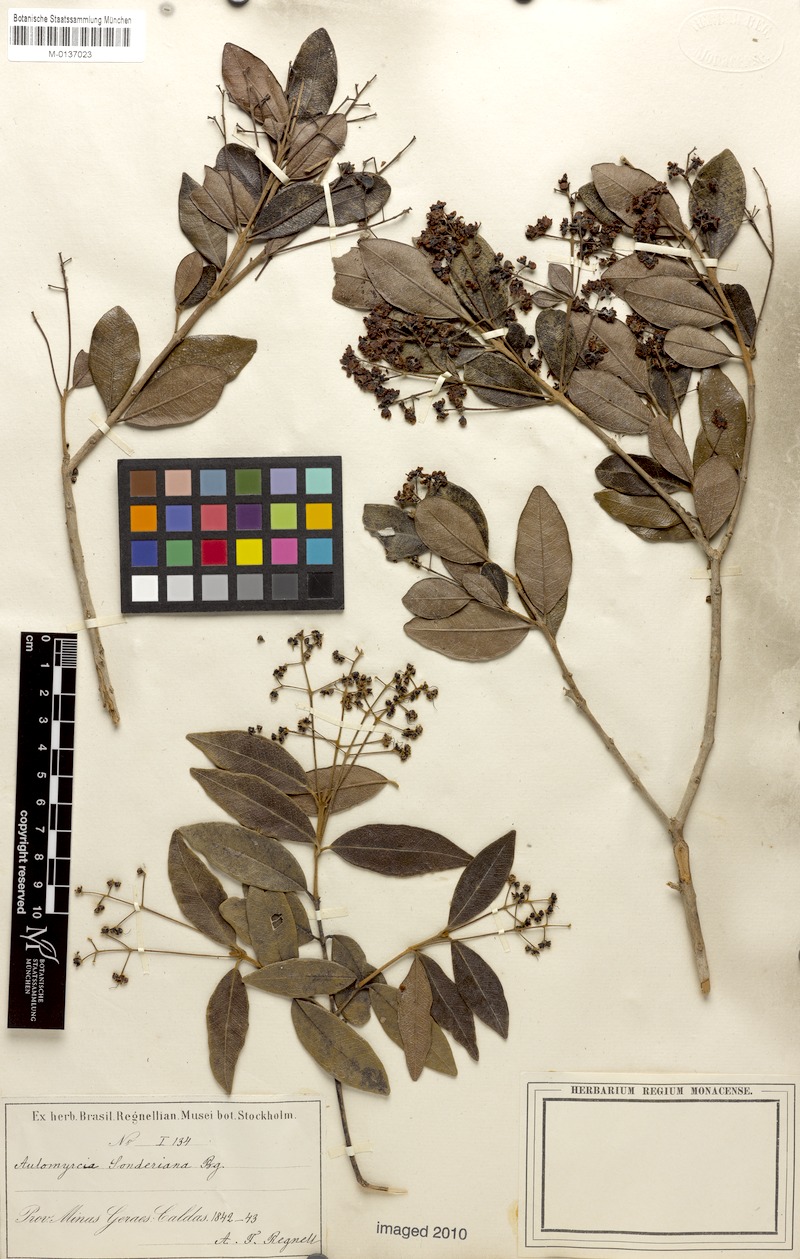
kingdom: Plantae
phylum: Tracheophyta
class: Magnoliopsida
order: Myrtales
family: Myrtaceae
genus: Myrcia
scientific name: Myrcia venulosa
